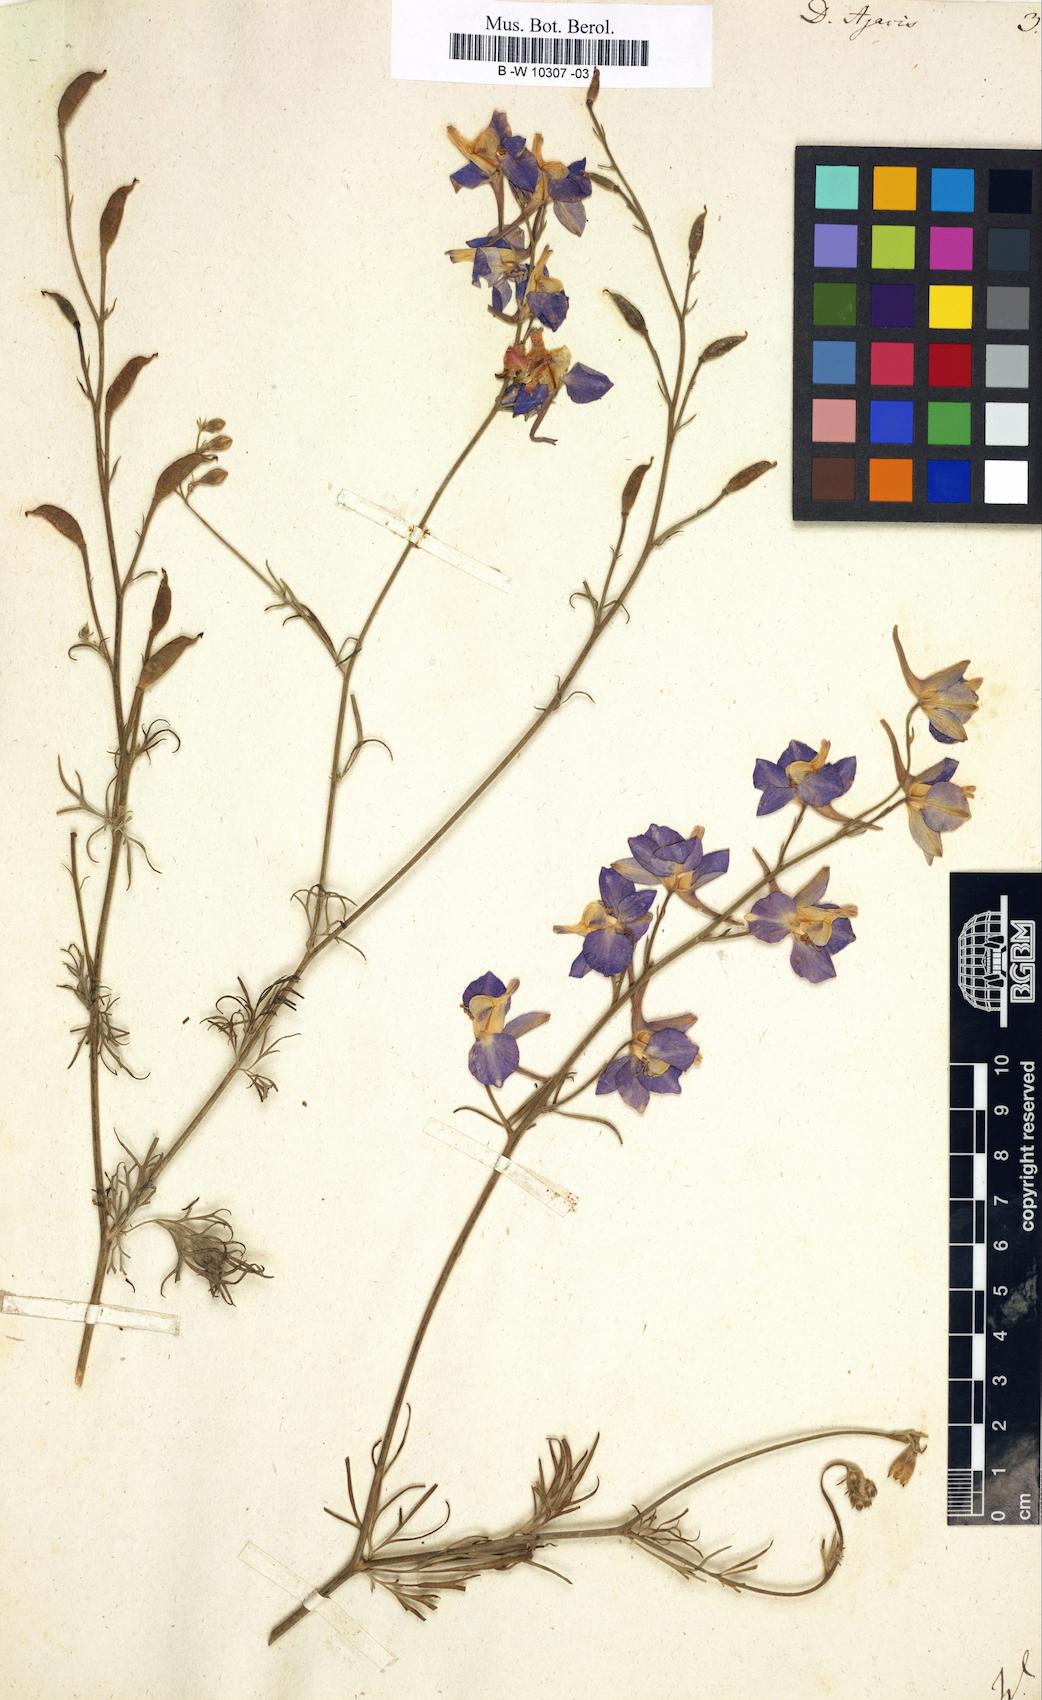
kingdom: Plantae
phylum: Tracheophyta
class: Magnoliopsida
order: Ranunculales
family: Ranunculaceae
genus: Delphinium
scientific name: Delphinium ajacis
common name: Doubtful knight's-spur
